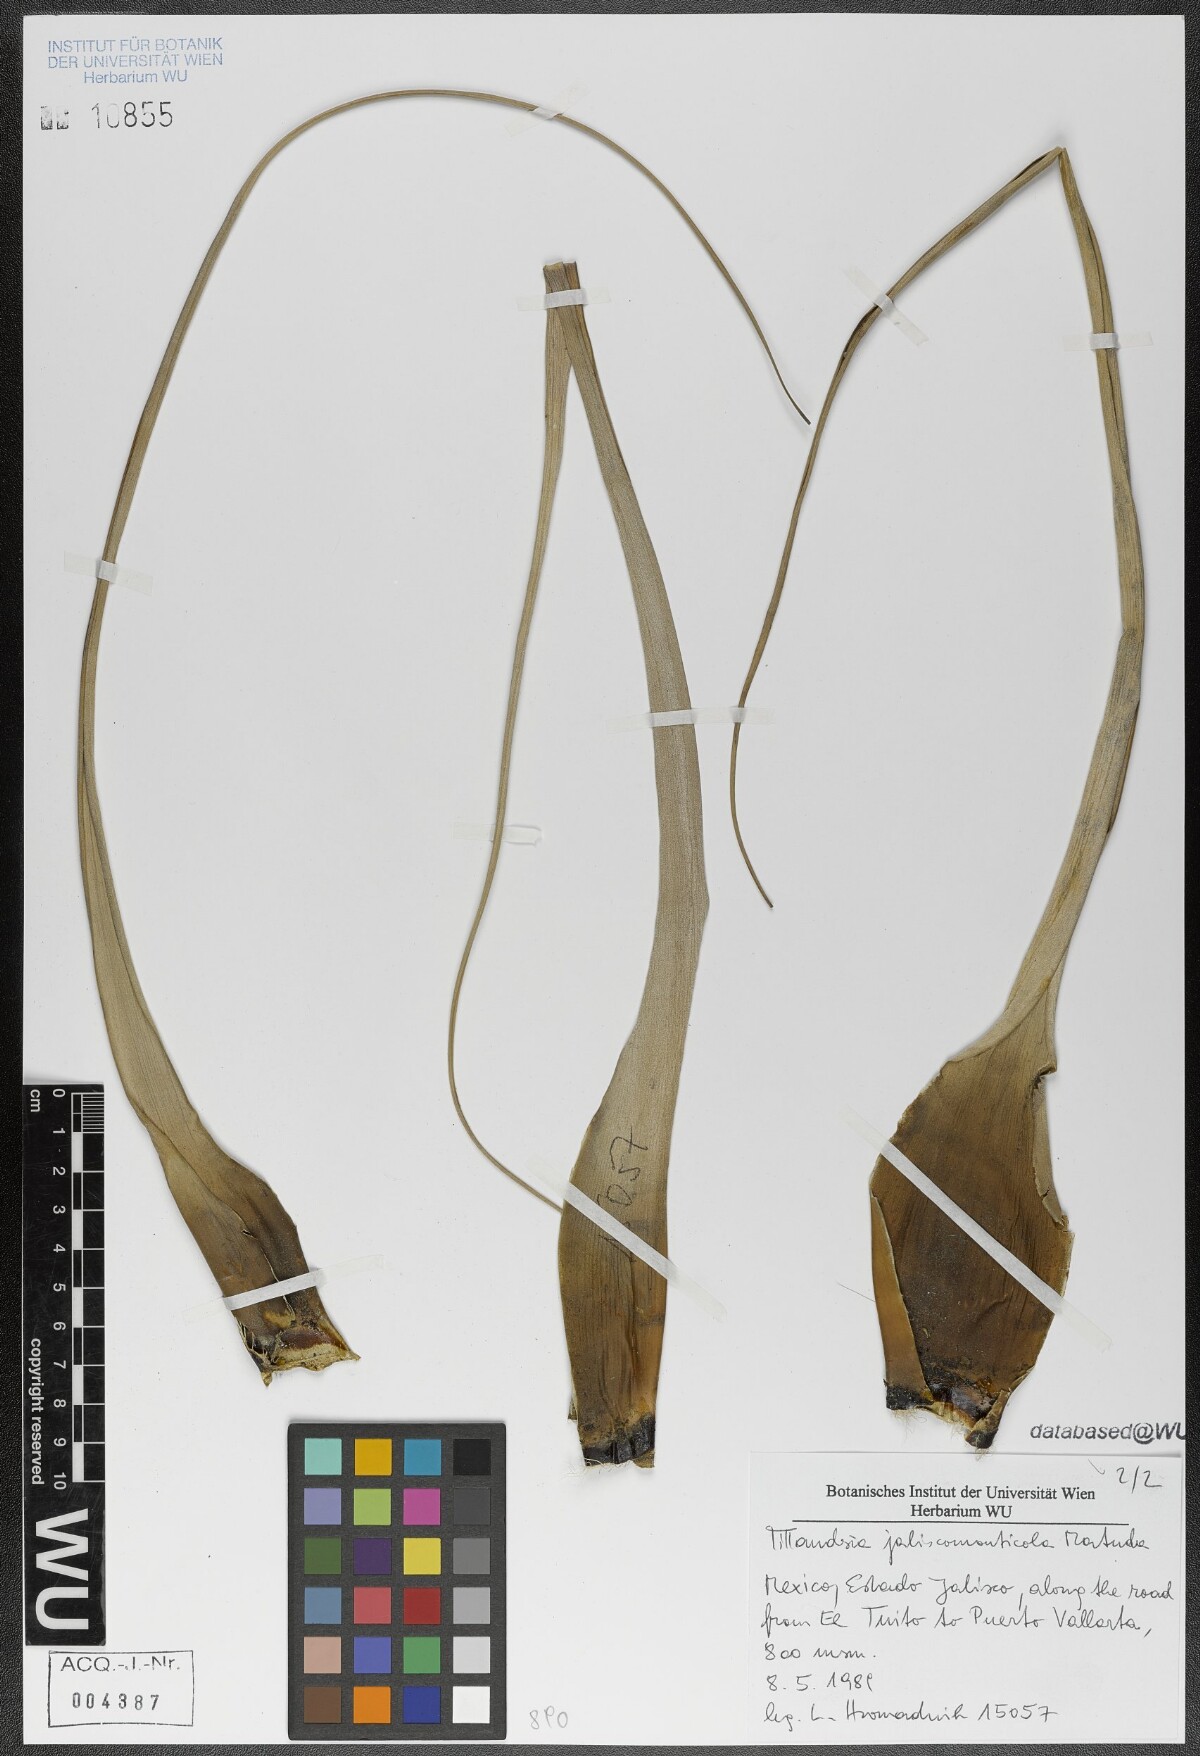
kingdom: Plantae
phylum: Tracheophyta
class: Liliopsida
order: Poales
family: Bromeliaceae
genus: Tillandsia
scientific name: Tillandsia compressa
